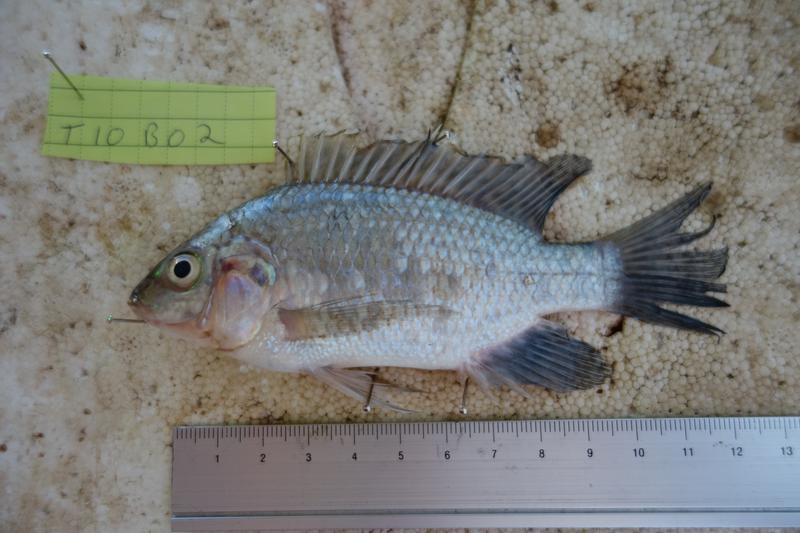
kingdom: Animalia
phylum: Chordata
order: Perciformes
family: Cichlidae
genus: Oreochromis
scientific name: Oreochromis rukwaensis
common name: Lake rukwa tilapia
